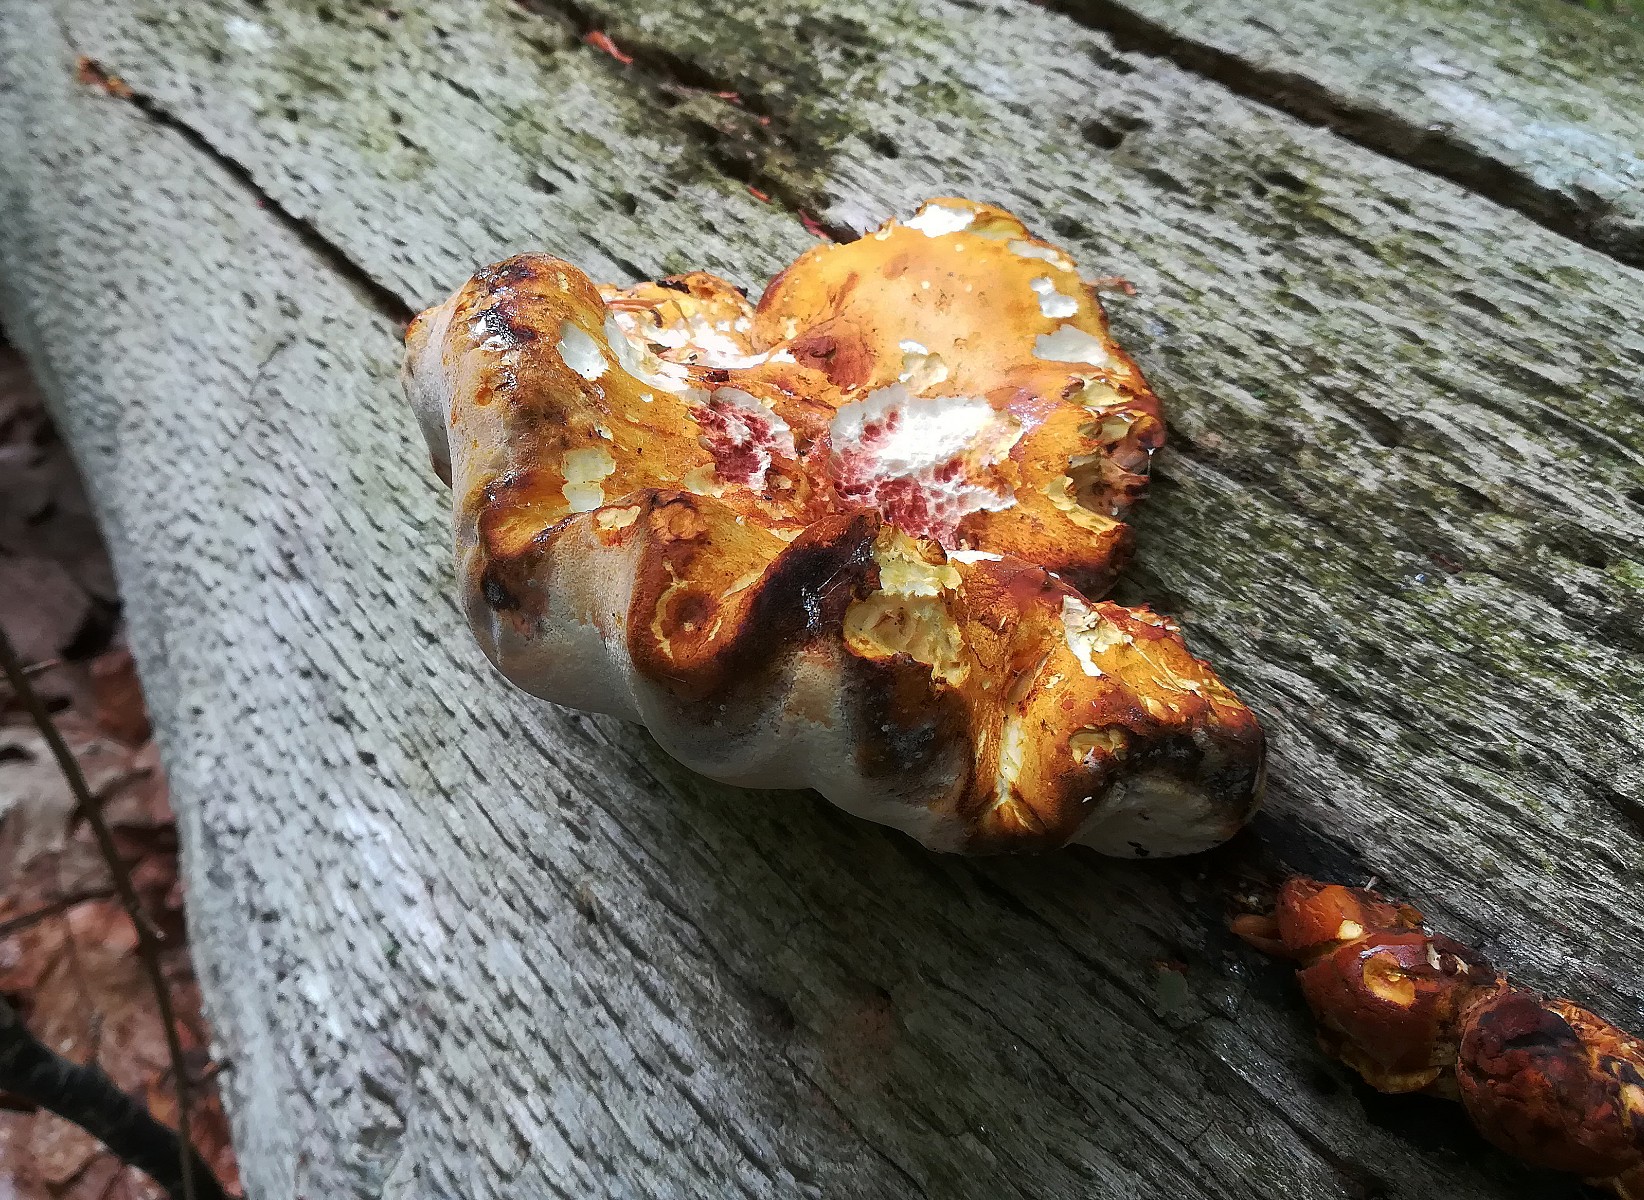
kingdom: Fungi
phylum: Basidiomycota
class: Agaricomycetes
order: Polyporales
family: Fomitopsidaceae
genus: Buglossoporus
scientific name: Buglossoporus quercinus
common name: egetunge
